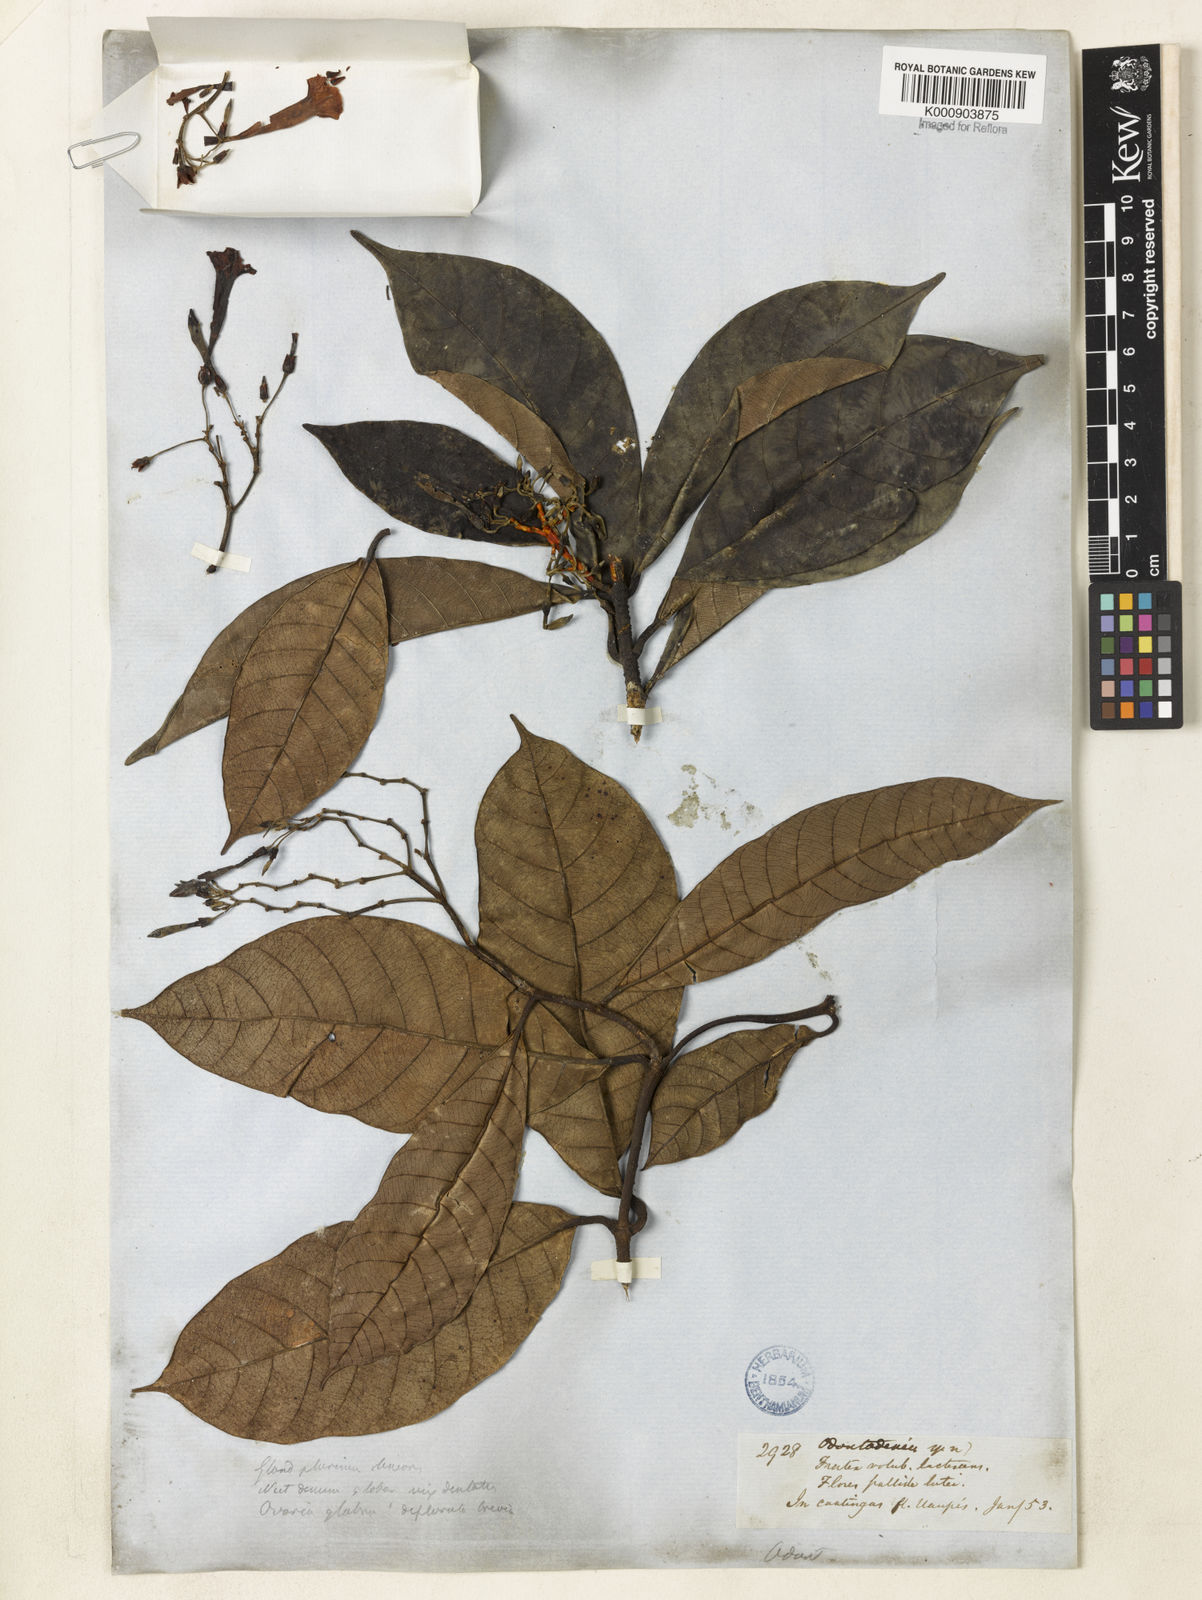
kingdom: Plantae
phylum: Tracheophyta
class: Magnoliopsida
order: Gentianales
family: Apocynaceae
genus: Odontadenia
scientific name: Odontadenia verrucosa
